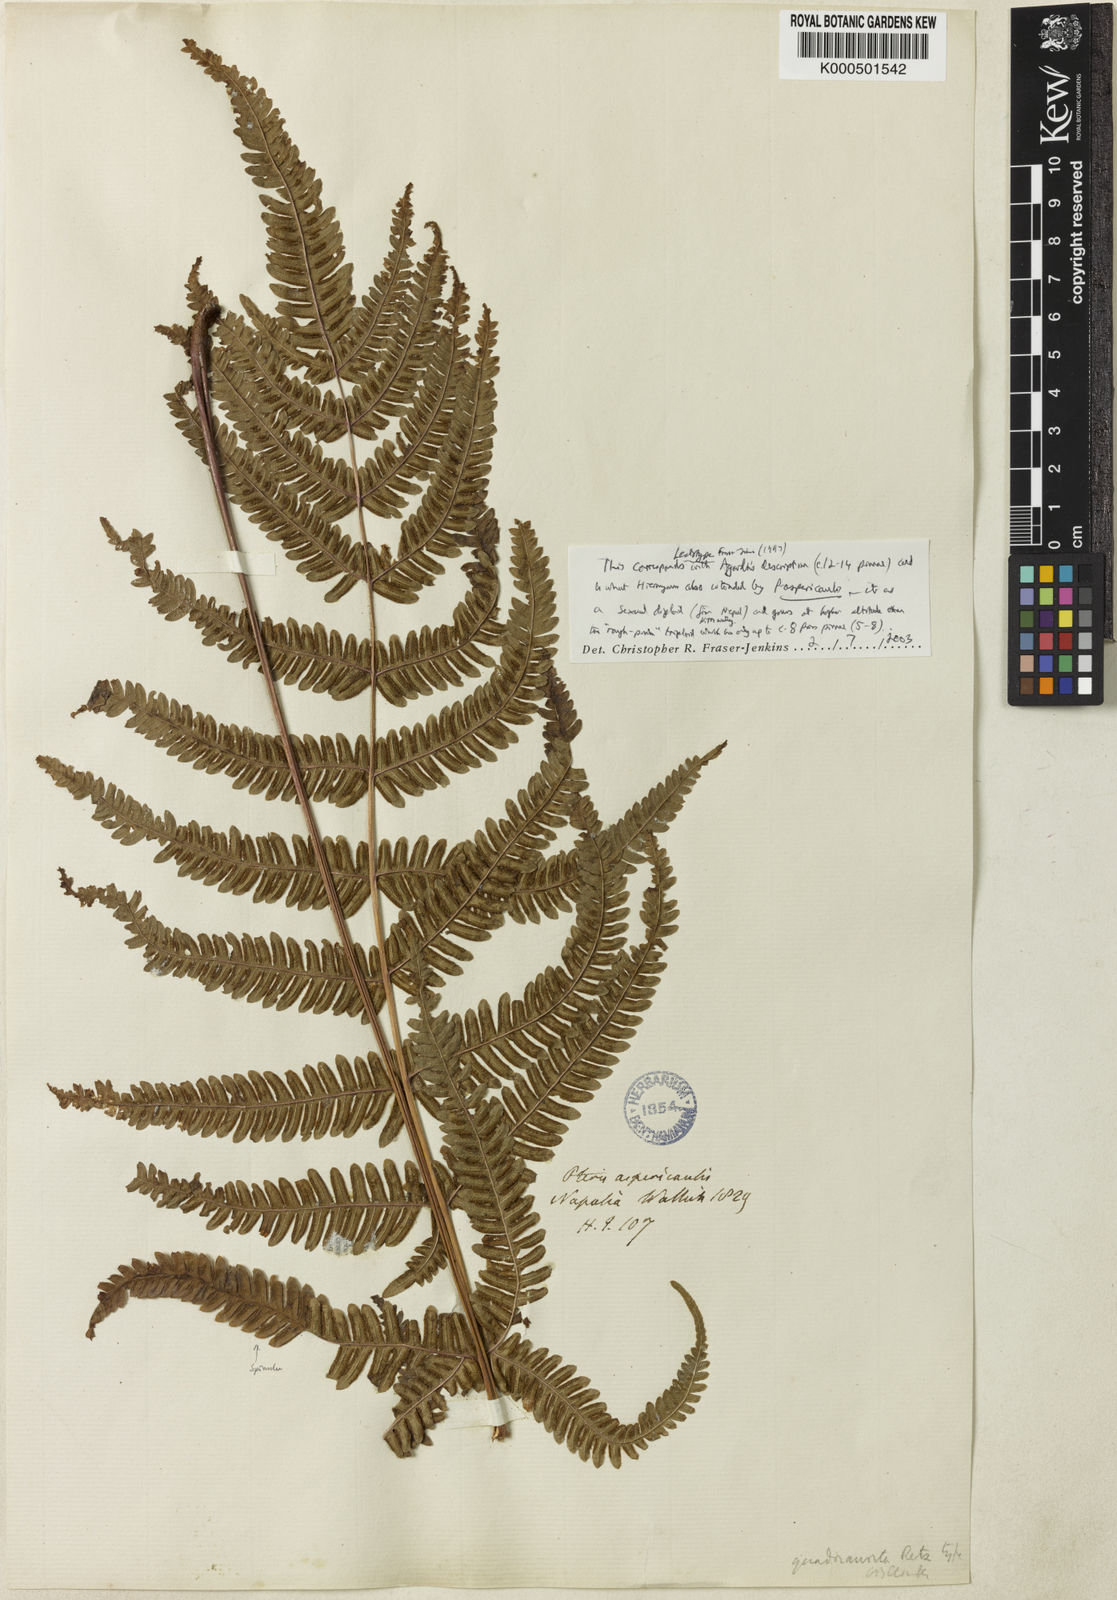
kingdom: Plantae
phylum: Tracheophyta
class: Polypodiopsida
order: Polypodiales
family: Pteridaceae
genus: Pteris
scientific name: Pteris aspericaulis
